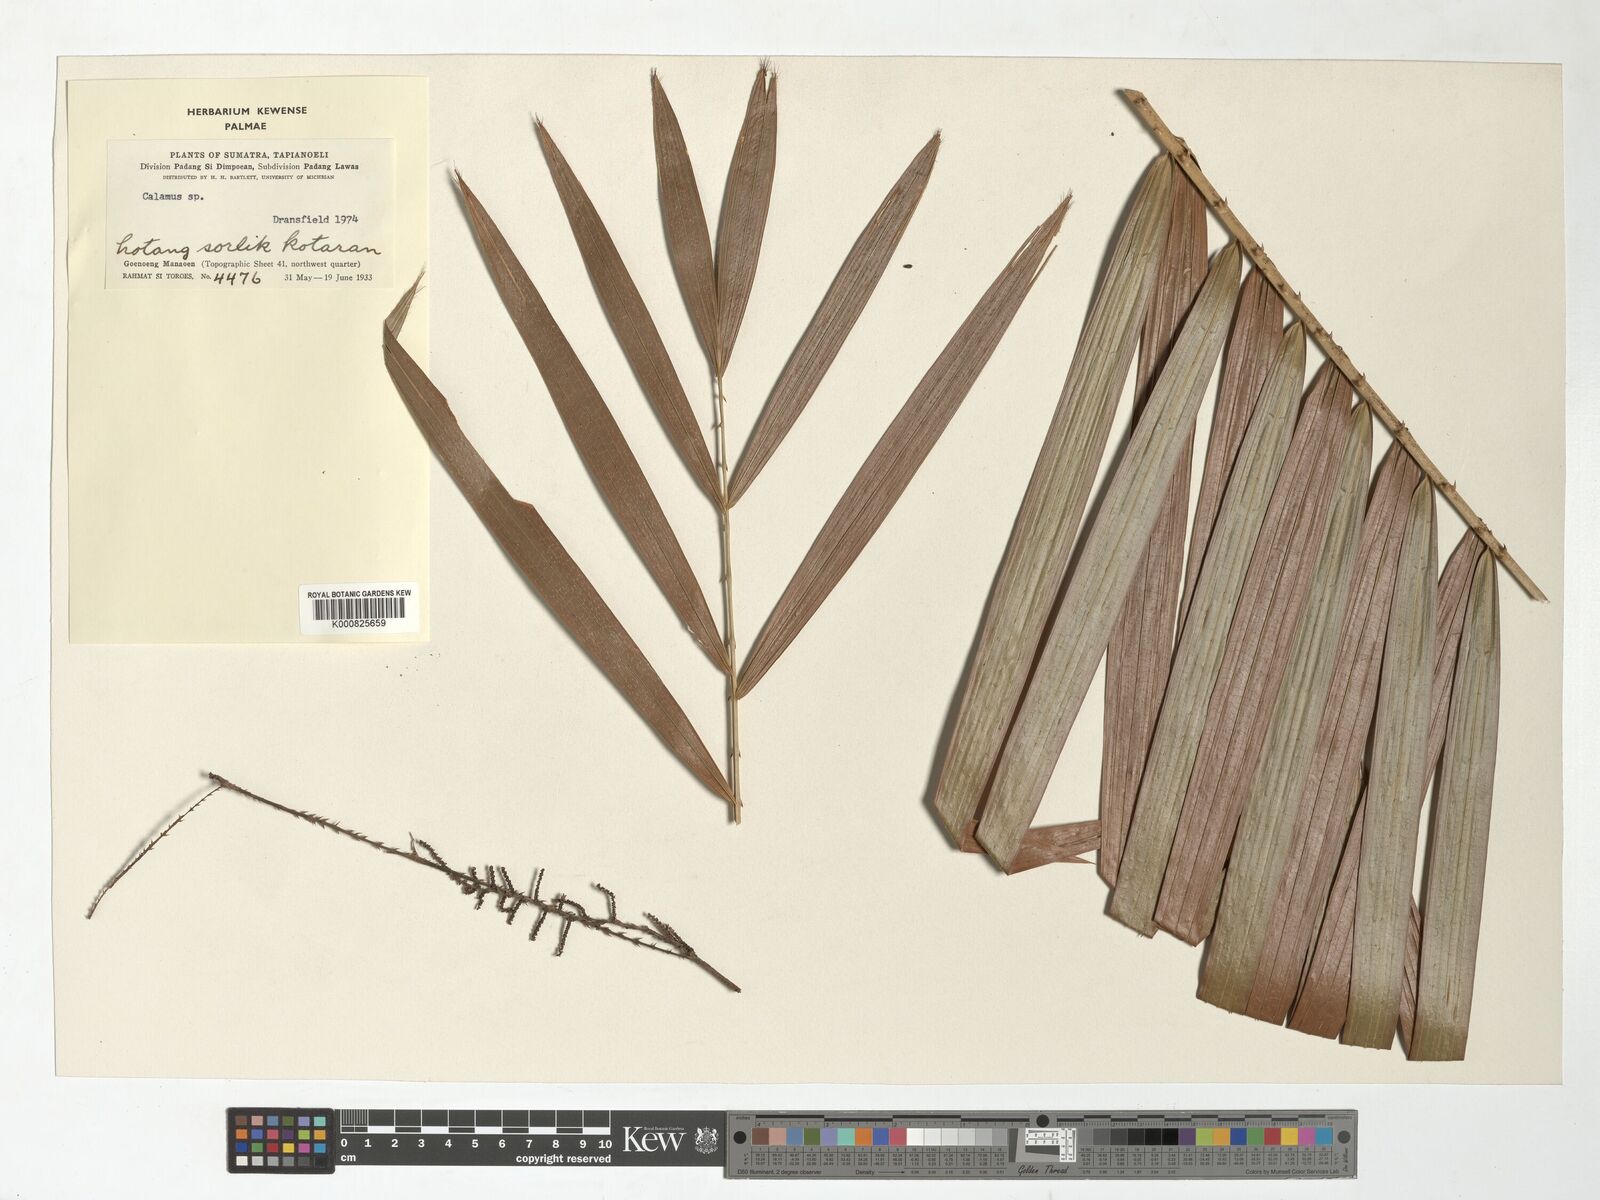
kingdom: Plantae
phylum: Tracheophyta
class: Liliopsida
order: Arecales
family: Arecaceae
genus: Calamus
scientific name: Calamus
